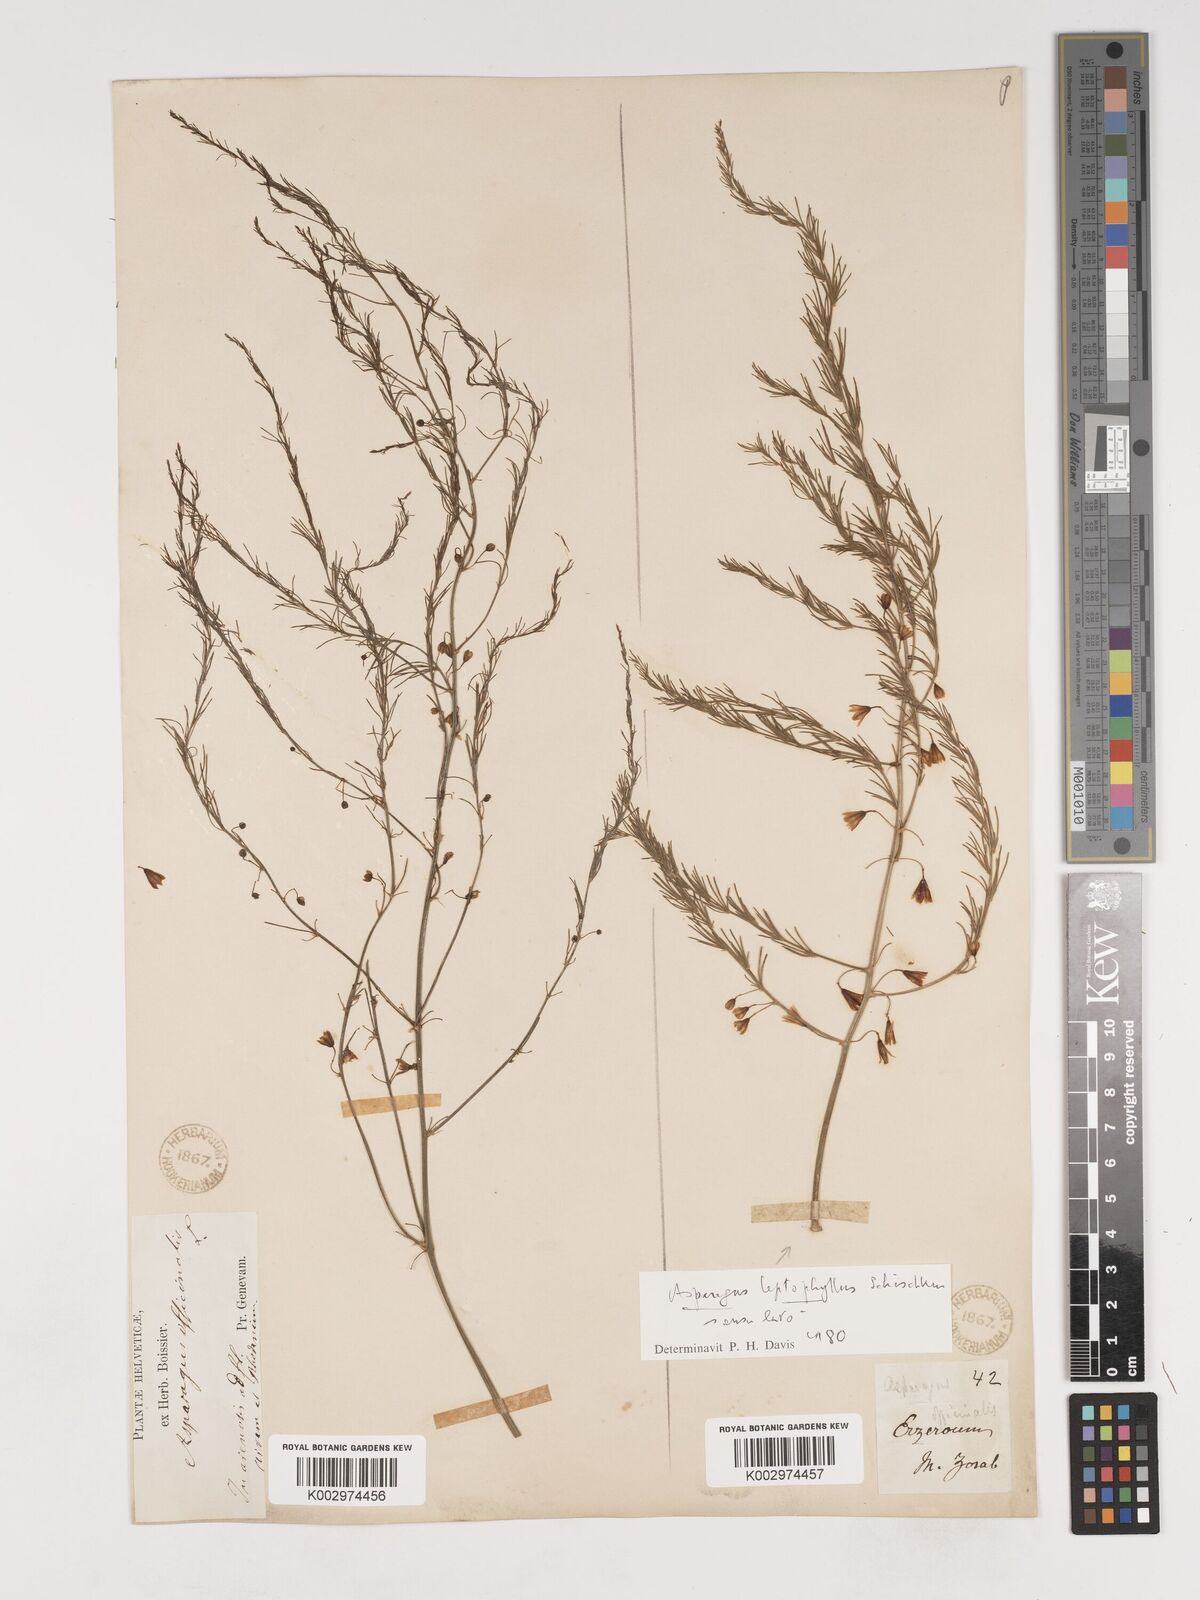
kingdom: Plantae
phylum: Tracheophyta
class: Liliopsida
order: Asparagales
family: Asparagaceae
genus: Asparagus
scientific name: Asparagus persicus
